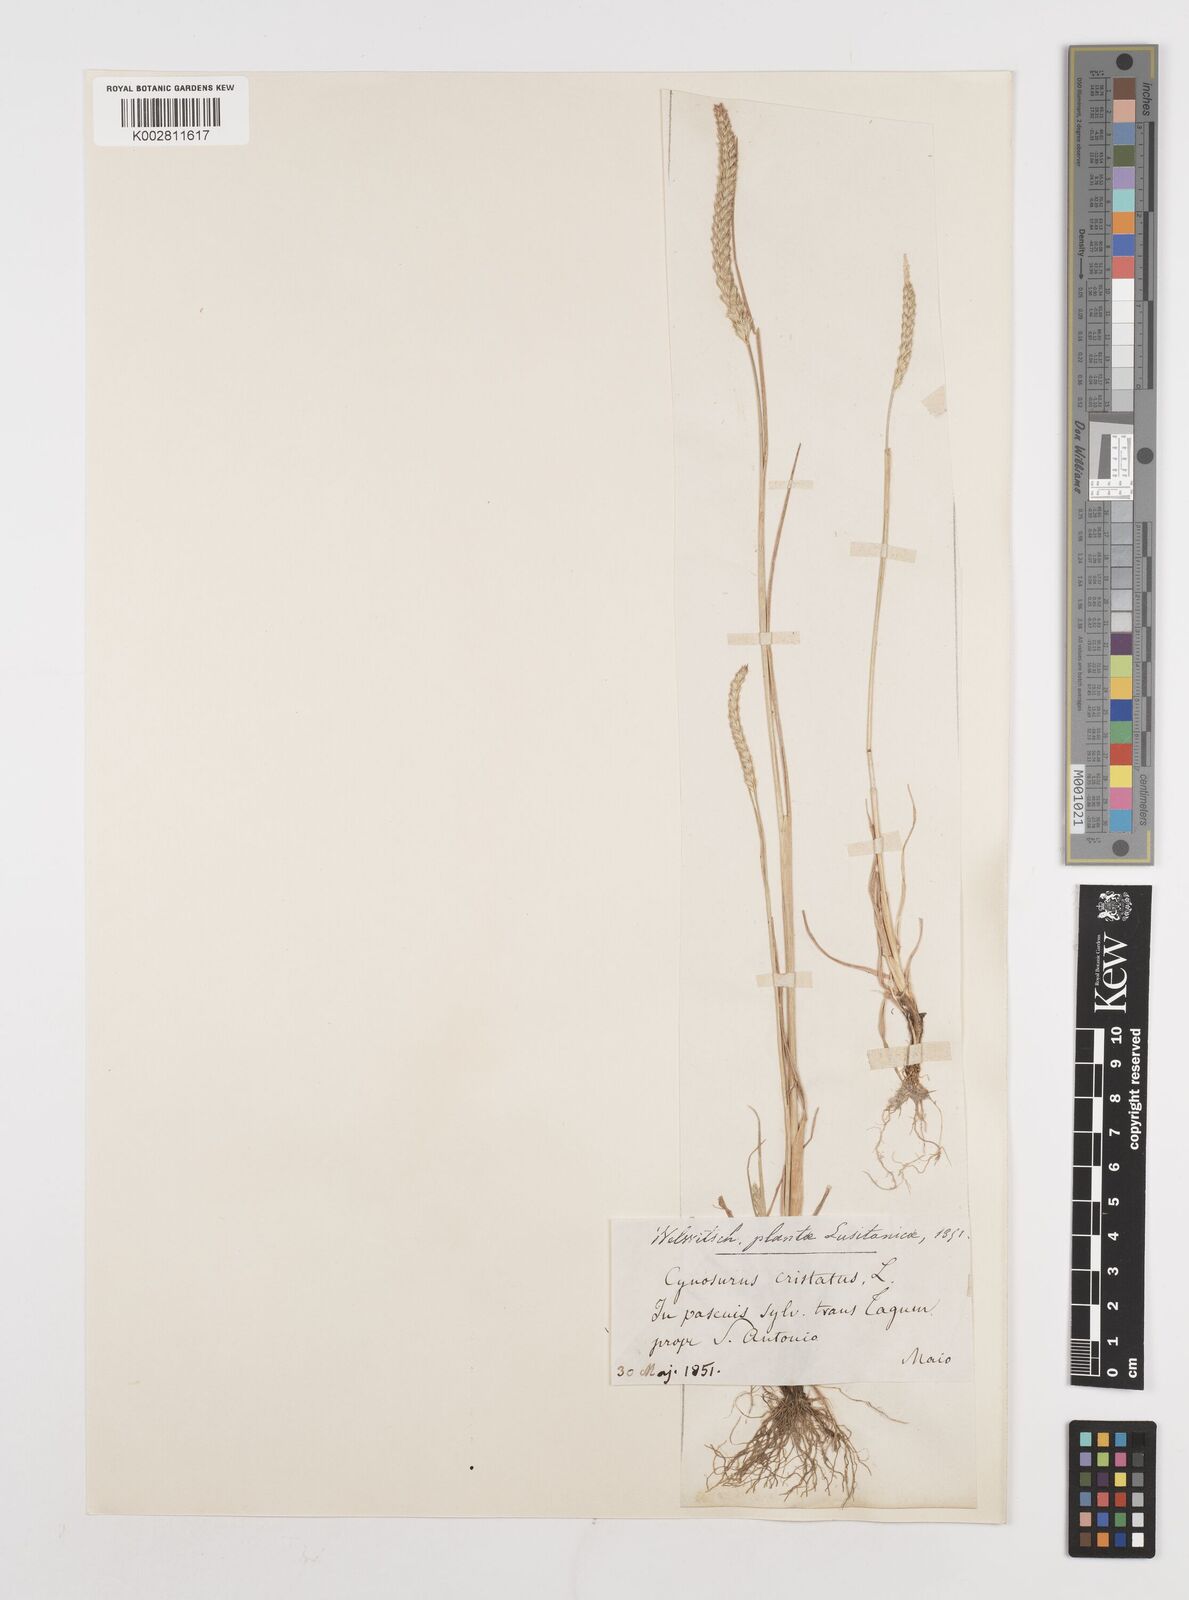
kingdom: Plantae
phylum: Tracheophyta
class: Liliopsida
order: Poales
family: Poaceae
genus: Cynosurus
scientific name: Cynosurus cristatus
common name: Crested dog's-tail
